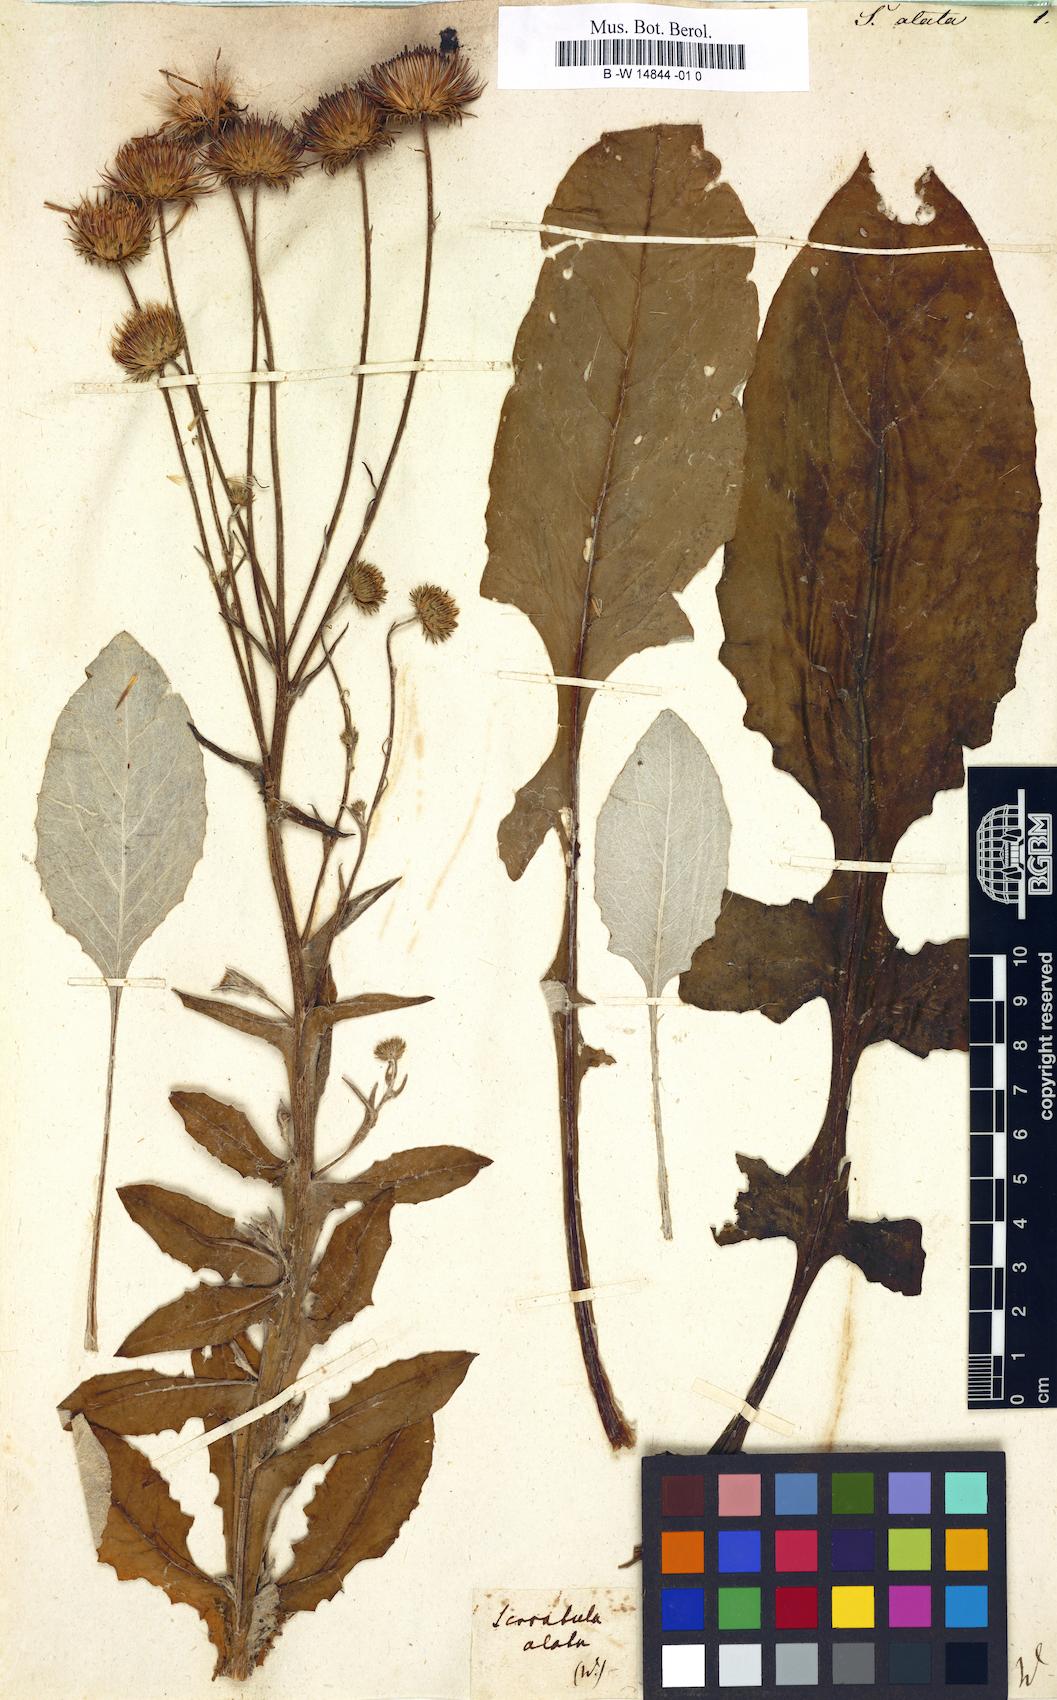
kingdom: Plantae
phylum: Tracheophyta
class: Magnoliopsida
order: Asterales
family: Asteraceae
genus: Serratula
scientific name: Serratula alata
